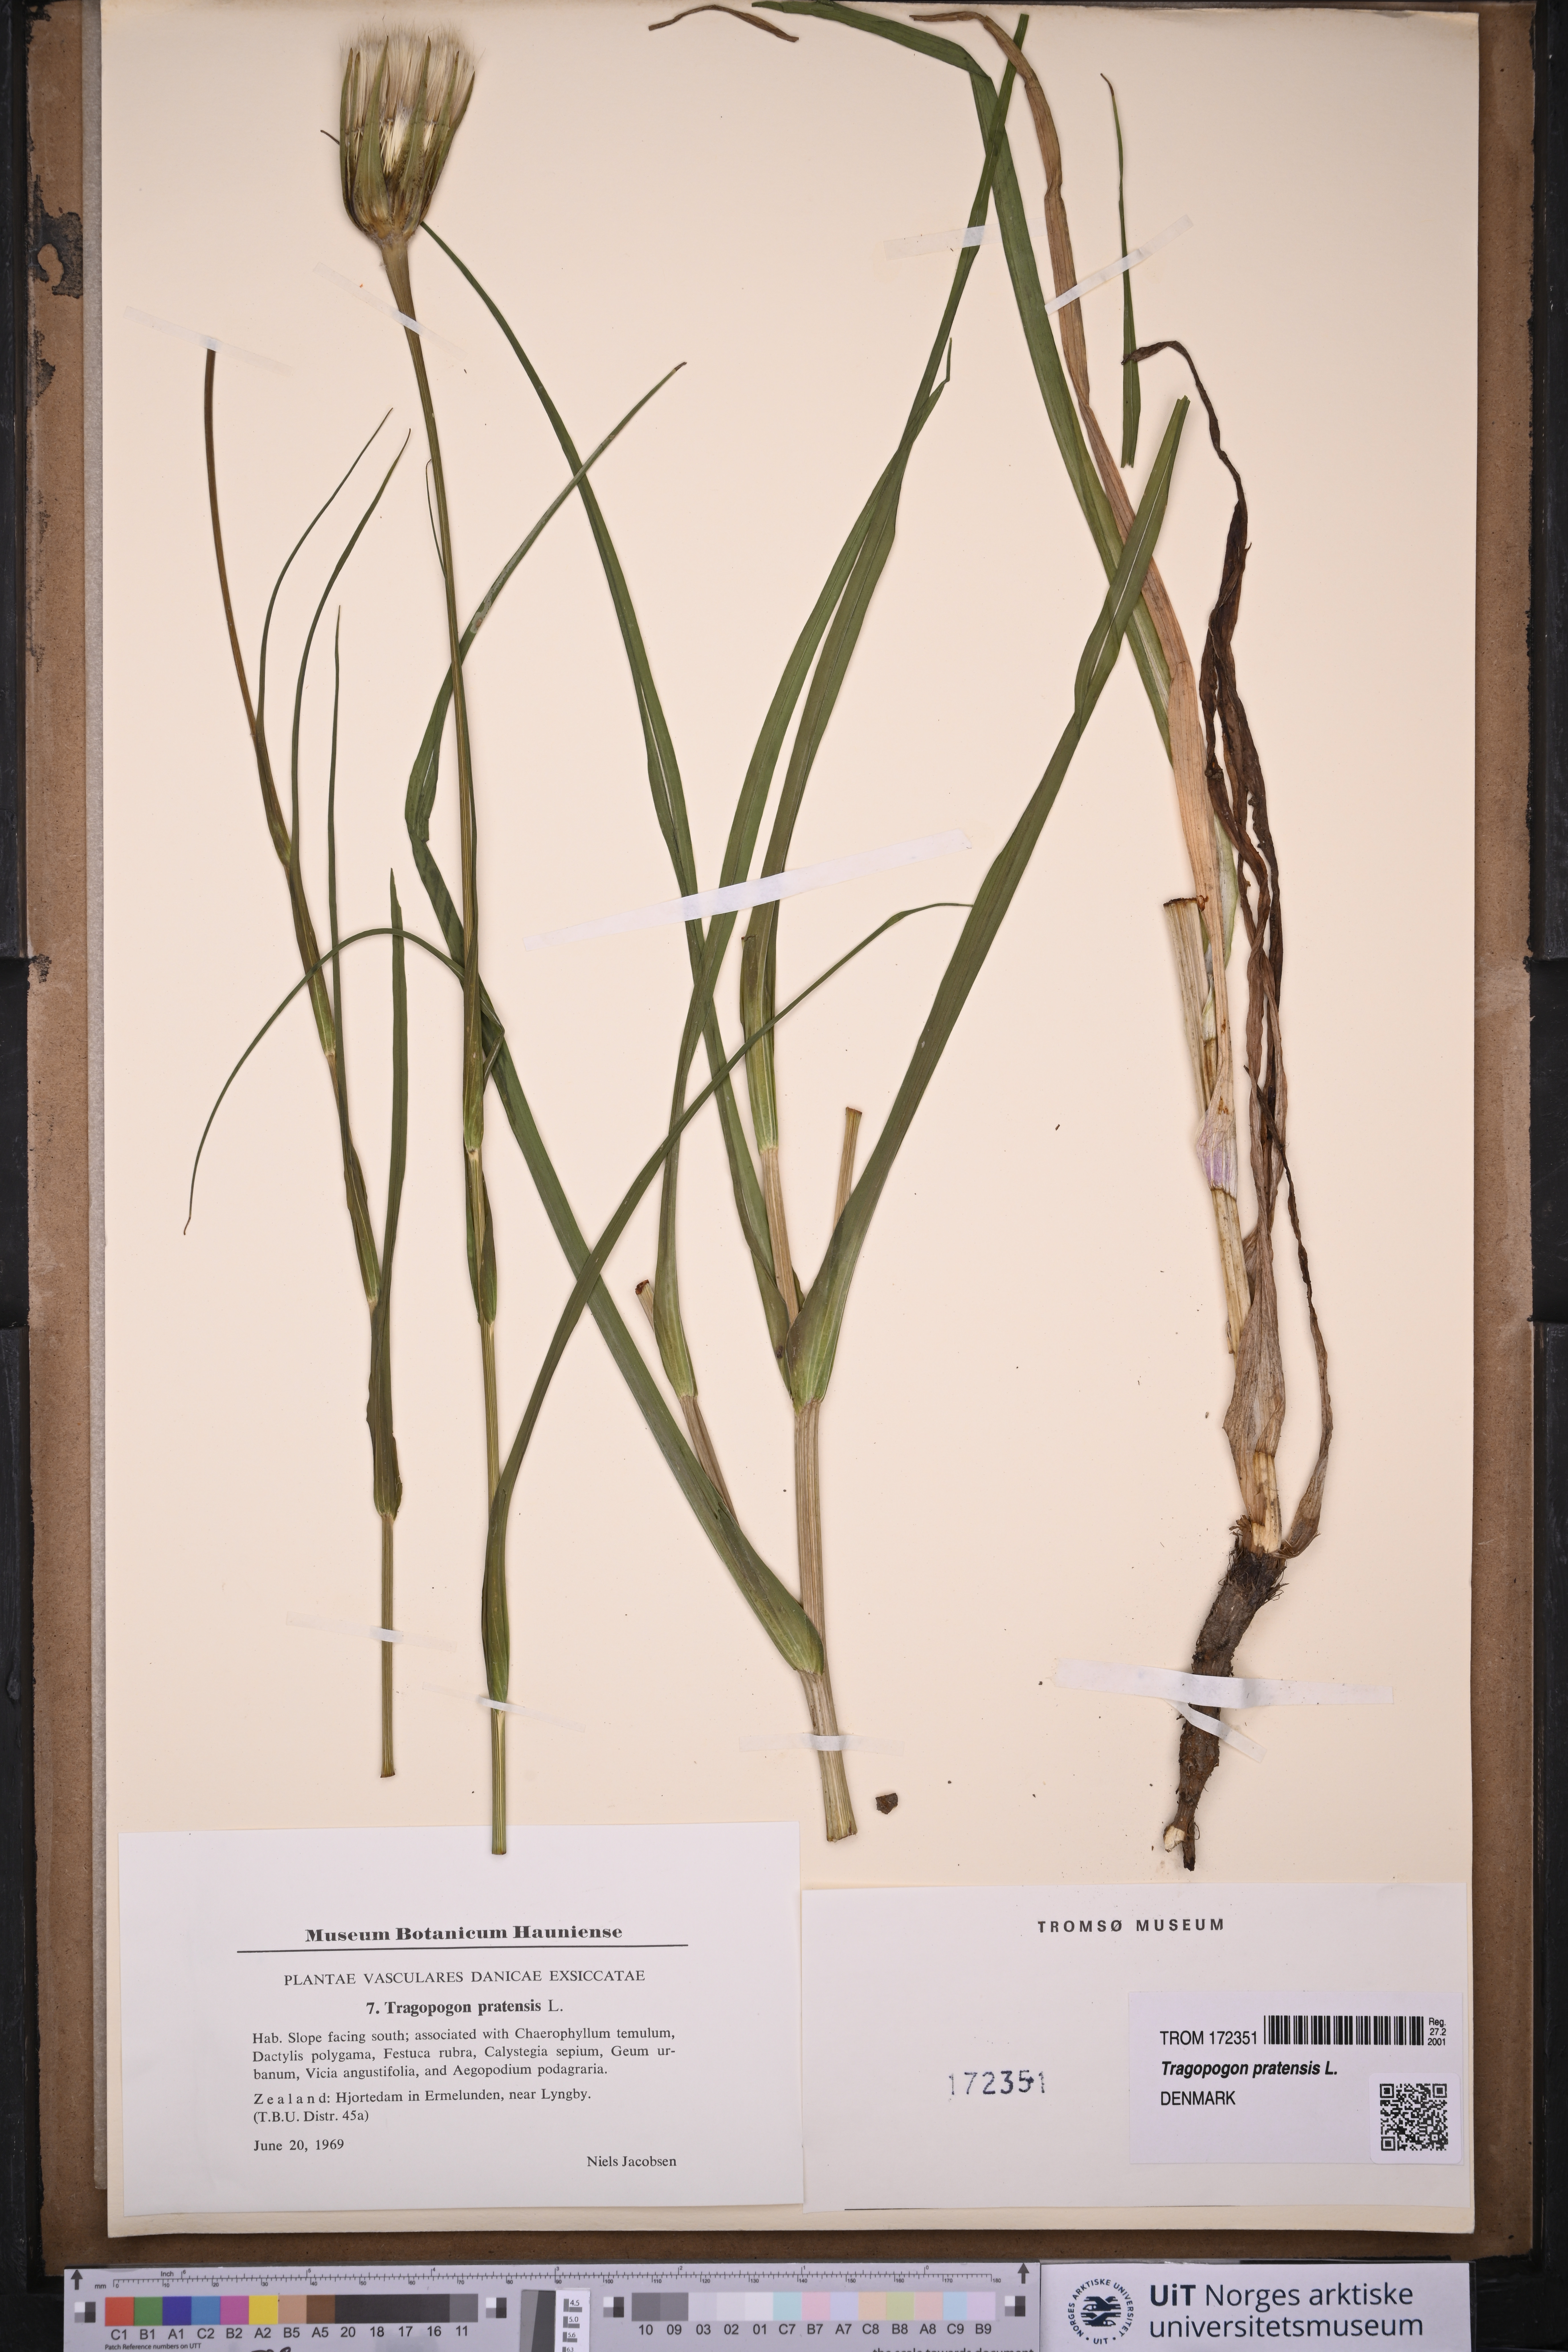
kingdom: Plantae
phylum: Tracheophyta
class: Magnoliopsida
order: Asterales
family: Asteraceae
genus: Tragopogon
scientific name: Tragopogon pratensis
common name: Goat's-beard
